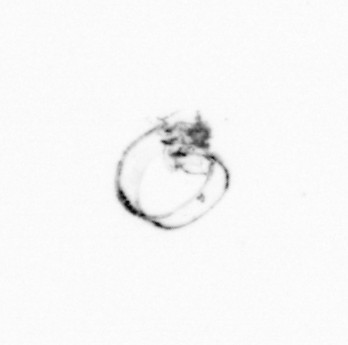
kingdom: Chromista
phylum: Myzozoa
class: Dinophyceae
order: Noctilucales
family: Noctilucaceae
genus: Noctiluca
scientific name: Noctiluca scintillans
